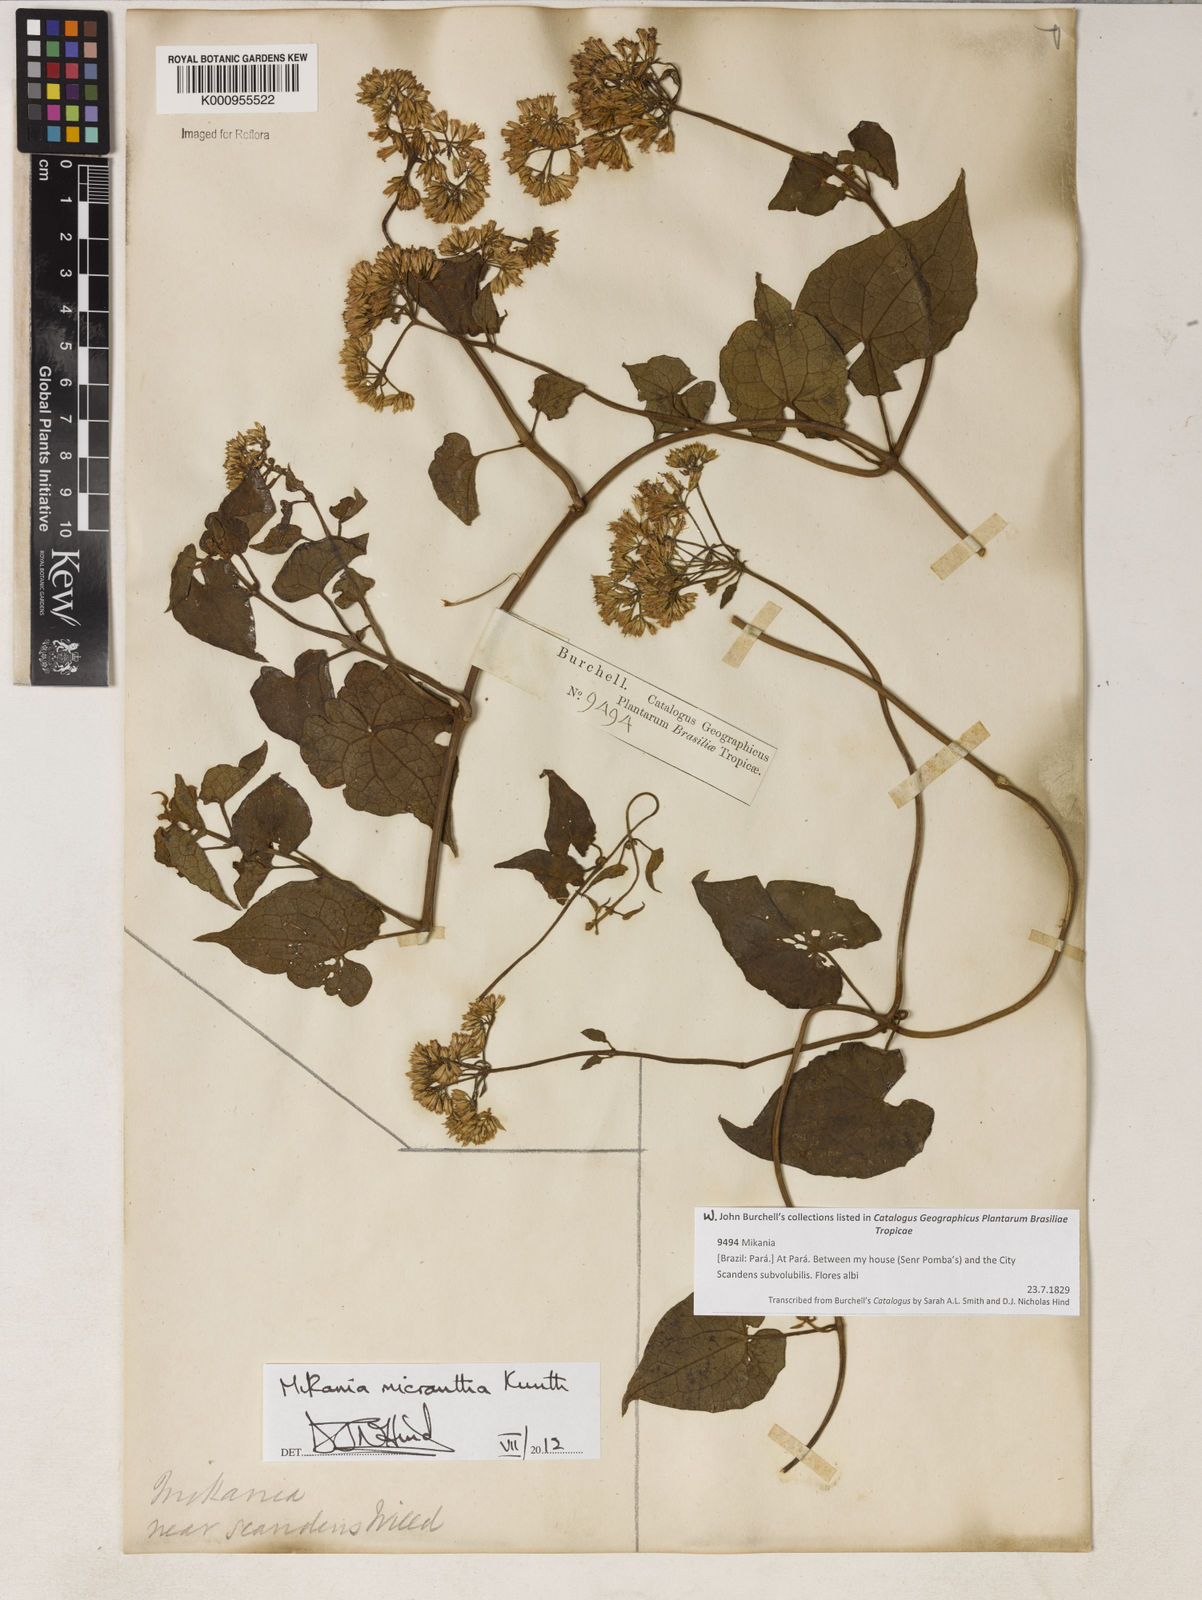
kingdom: Plantae
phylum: Tracheophyta
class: Magnoliopsida
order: Asterales
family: Asteraceae
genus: Mikania
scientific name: Mikania
